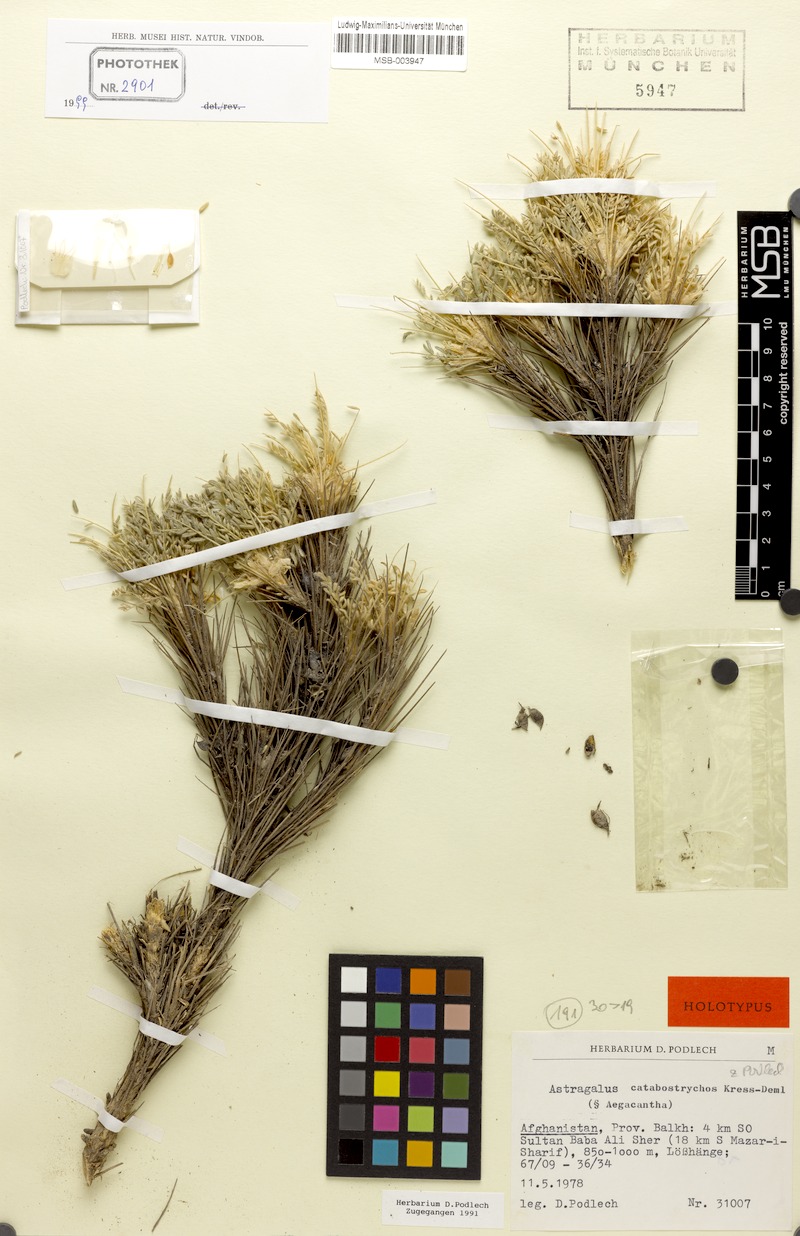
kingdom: Plantae
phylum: Tracheophyta
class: Magnoliopsida
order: Fabales
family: Fabaceae
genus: Astragalus
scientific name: Astragalus catabostrychos
